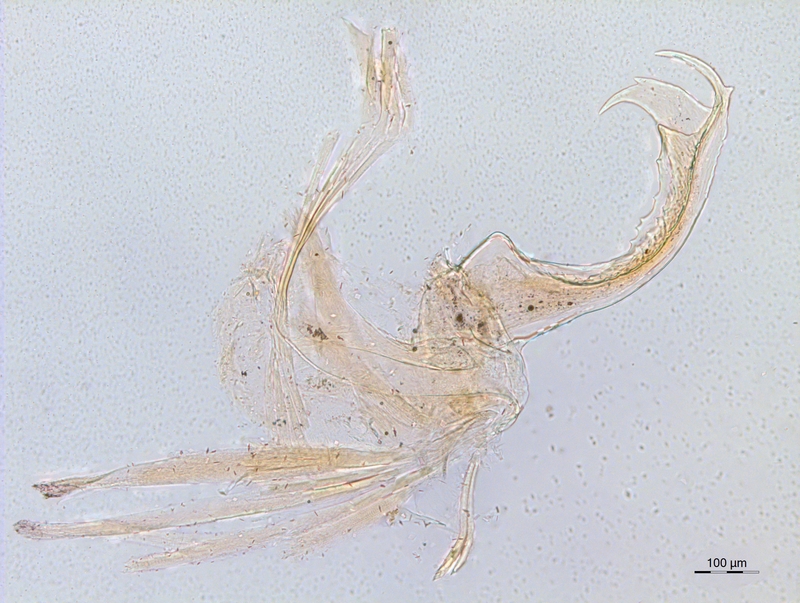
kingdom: Animalia
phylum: Arthropoda
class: Diplopoda
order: Chordeumatida
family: Craspedosomatidae
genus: Atractosoma
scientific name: Atractosoma cecconii
